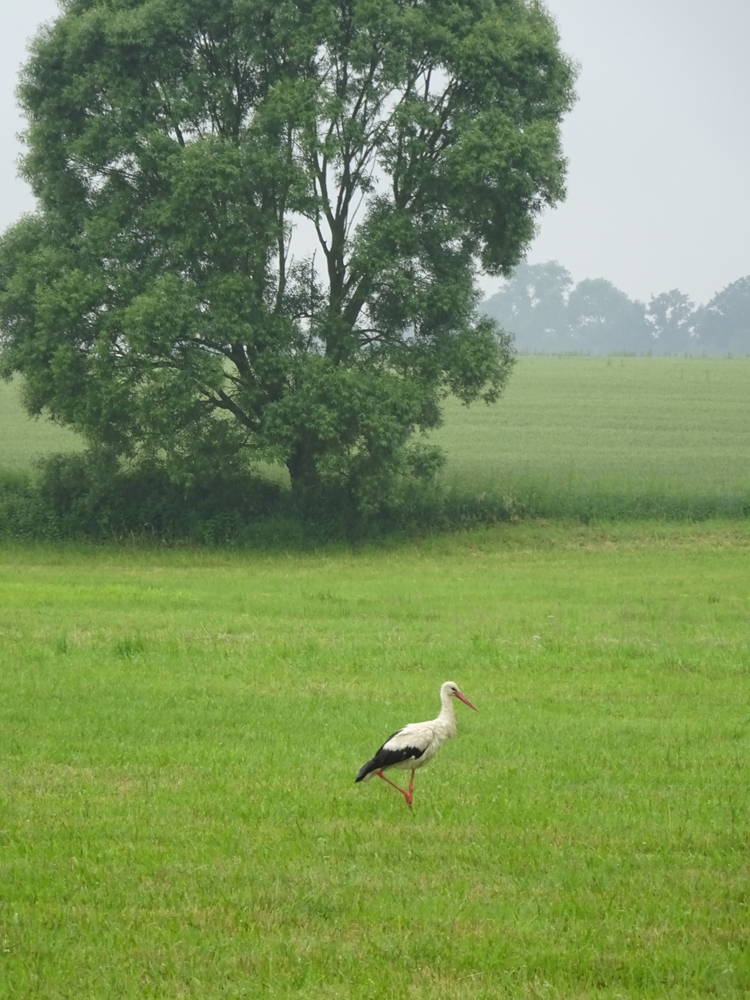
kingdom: Animalia
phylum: Chordata
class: Aves
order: Ciconiiformes
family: Ciconiidae
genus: Ciconia
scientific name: Ciconia ciconia
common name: White stork
